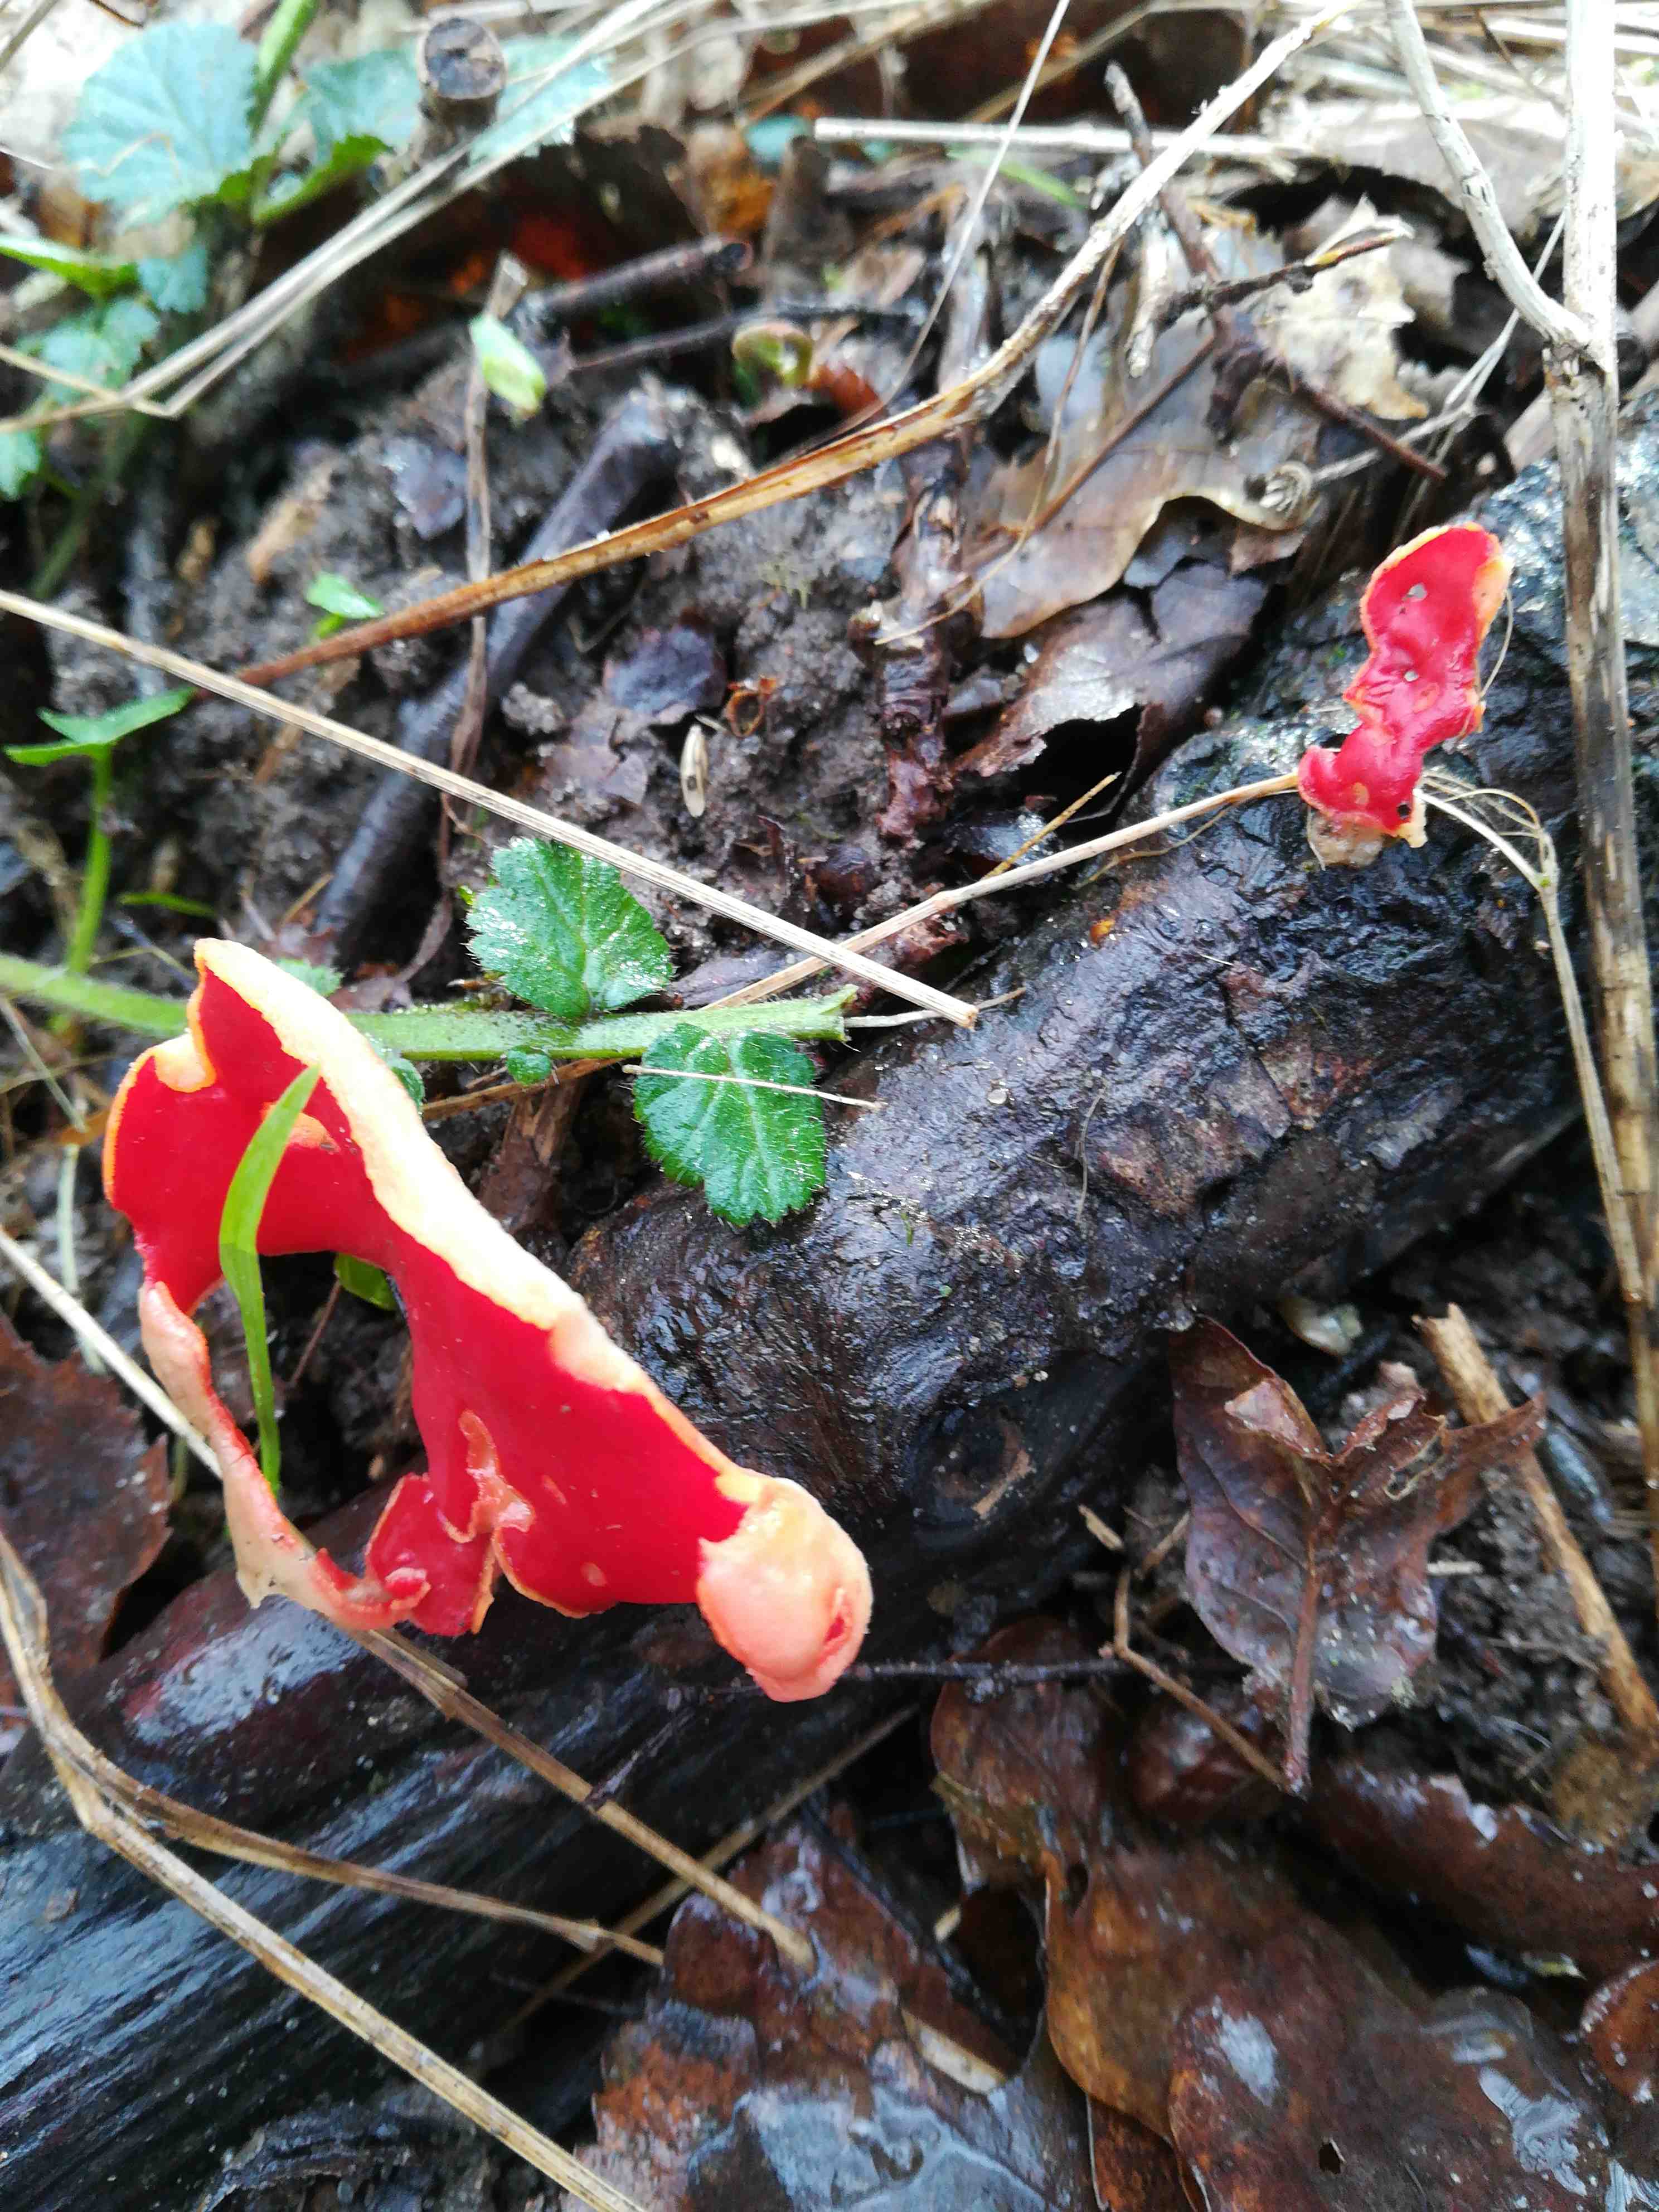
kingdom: Fungi
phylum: Ascomycota
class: Pezizomycetes
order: Pezizales
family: Sarcoscyphaceae
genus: Sarcoscypha
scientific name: Sarcoscypha
